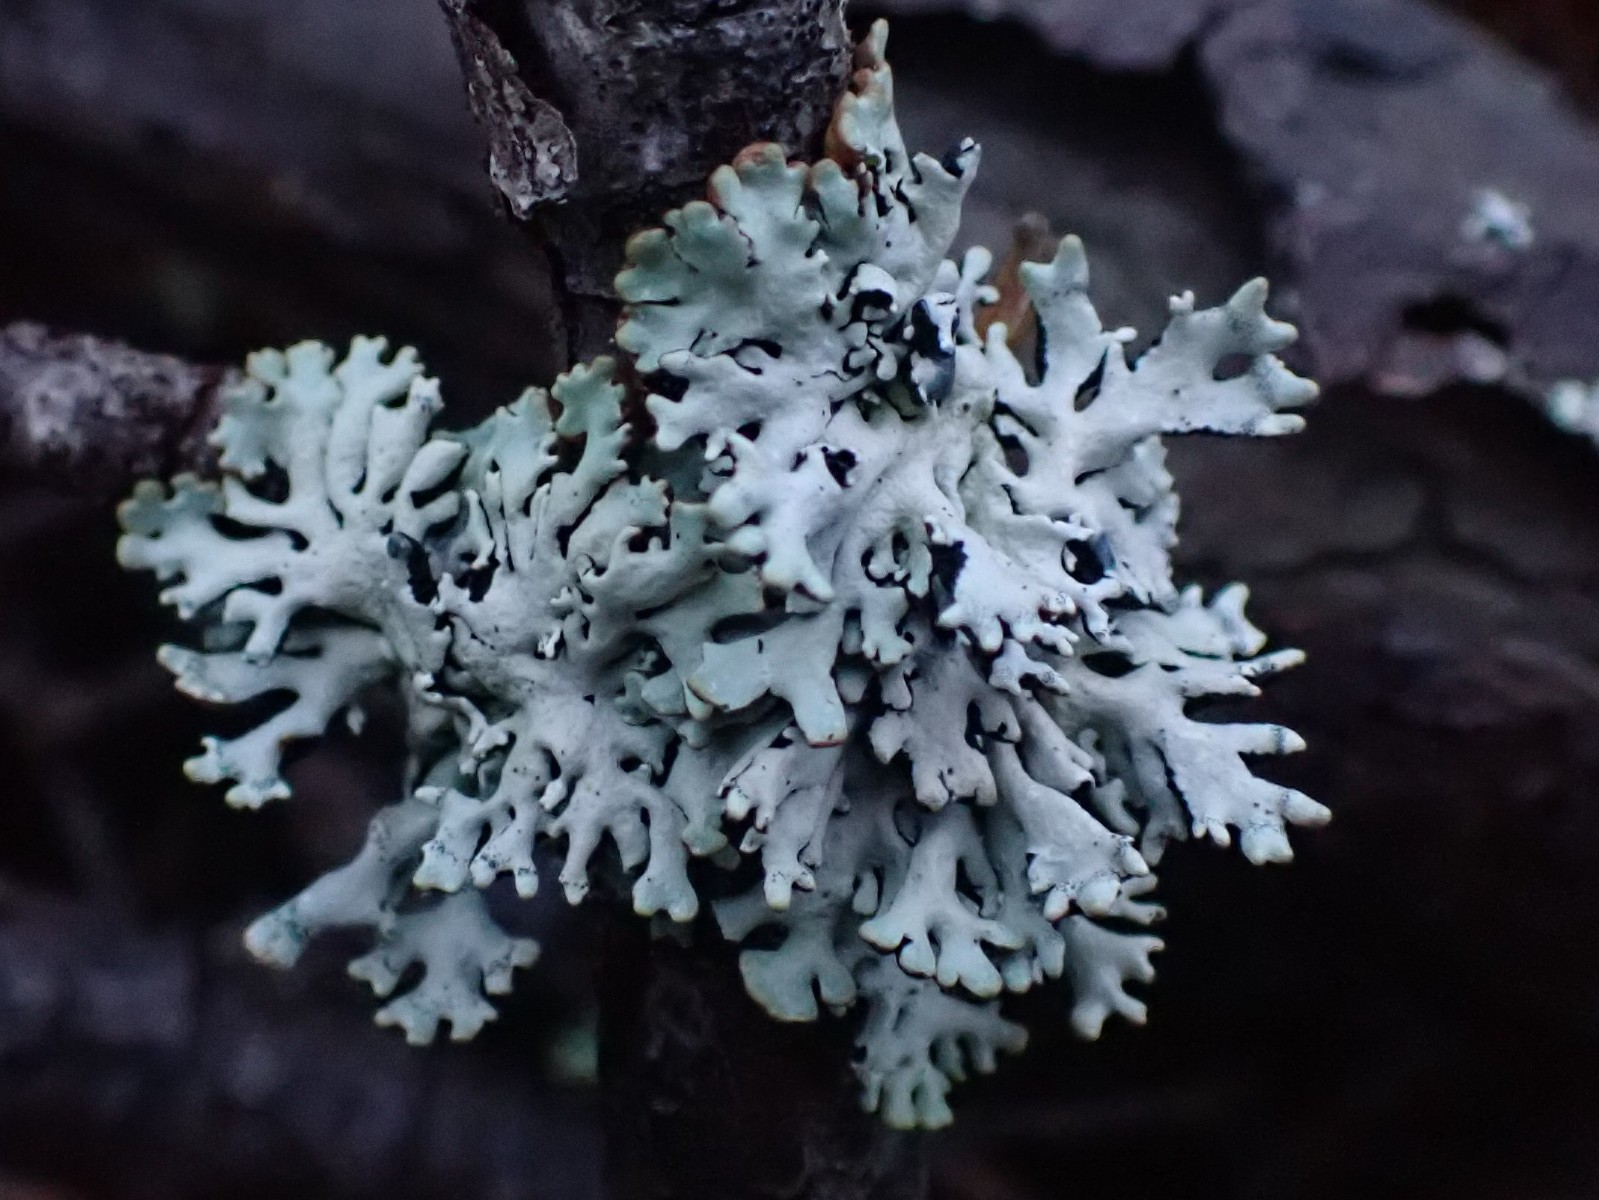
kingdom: Fungi
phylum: Ascomycota
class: Lecanoromycetes
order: Lecanorales
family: Parmeliaceae
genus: Hypogymnia
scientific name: Hypogymnia physodes
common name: almindelig kvistlav
